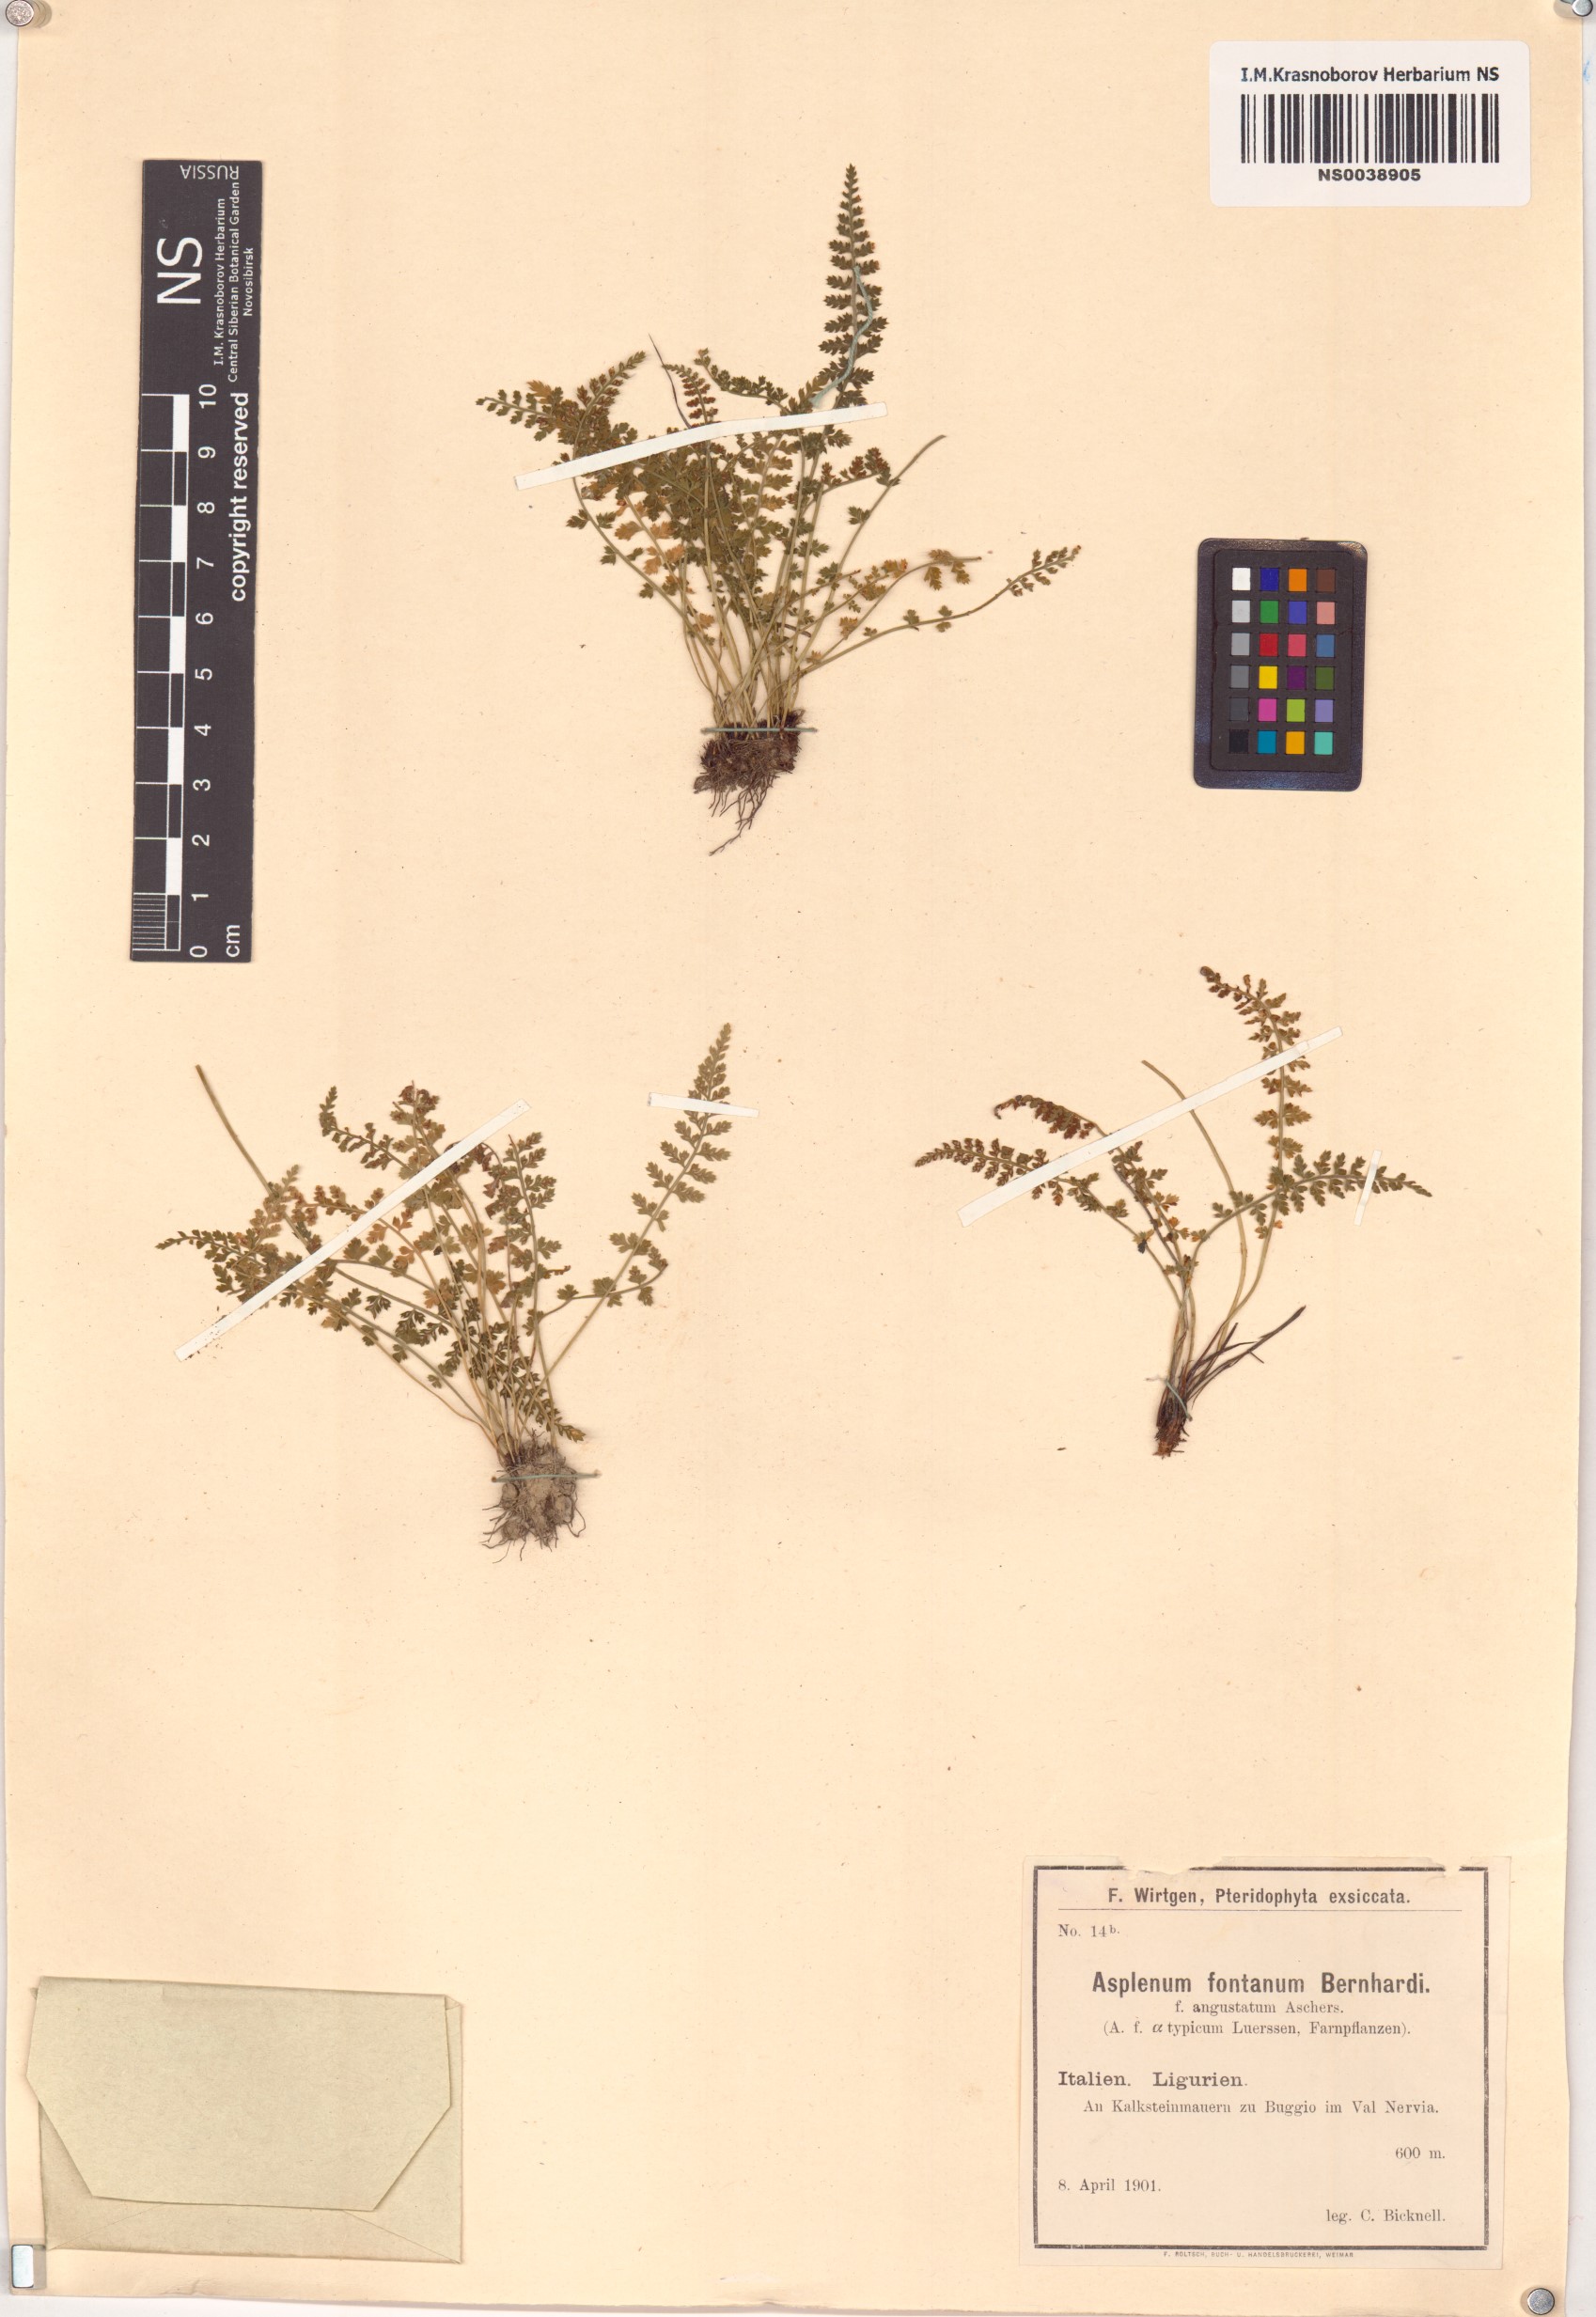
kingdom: Plantae
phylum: Tracheophyta
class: Polypodiopsida
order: Polypodiales
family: Aspleniaceae
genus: Asplenium
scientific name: Asplenium fontanum
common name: Fountain spleenwort
